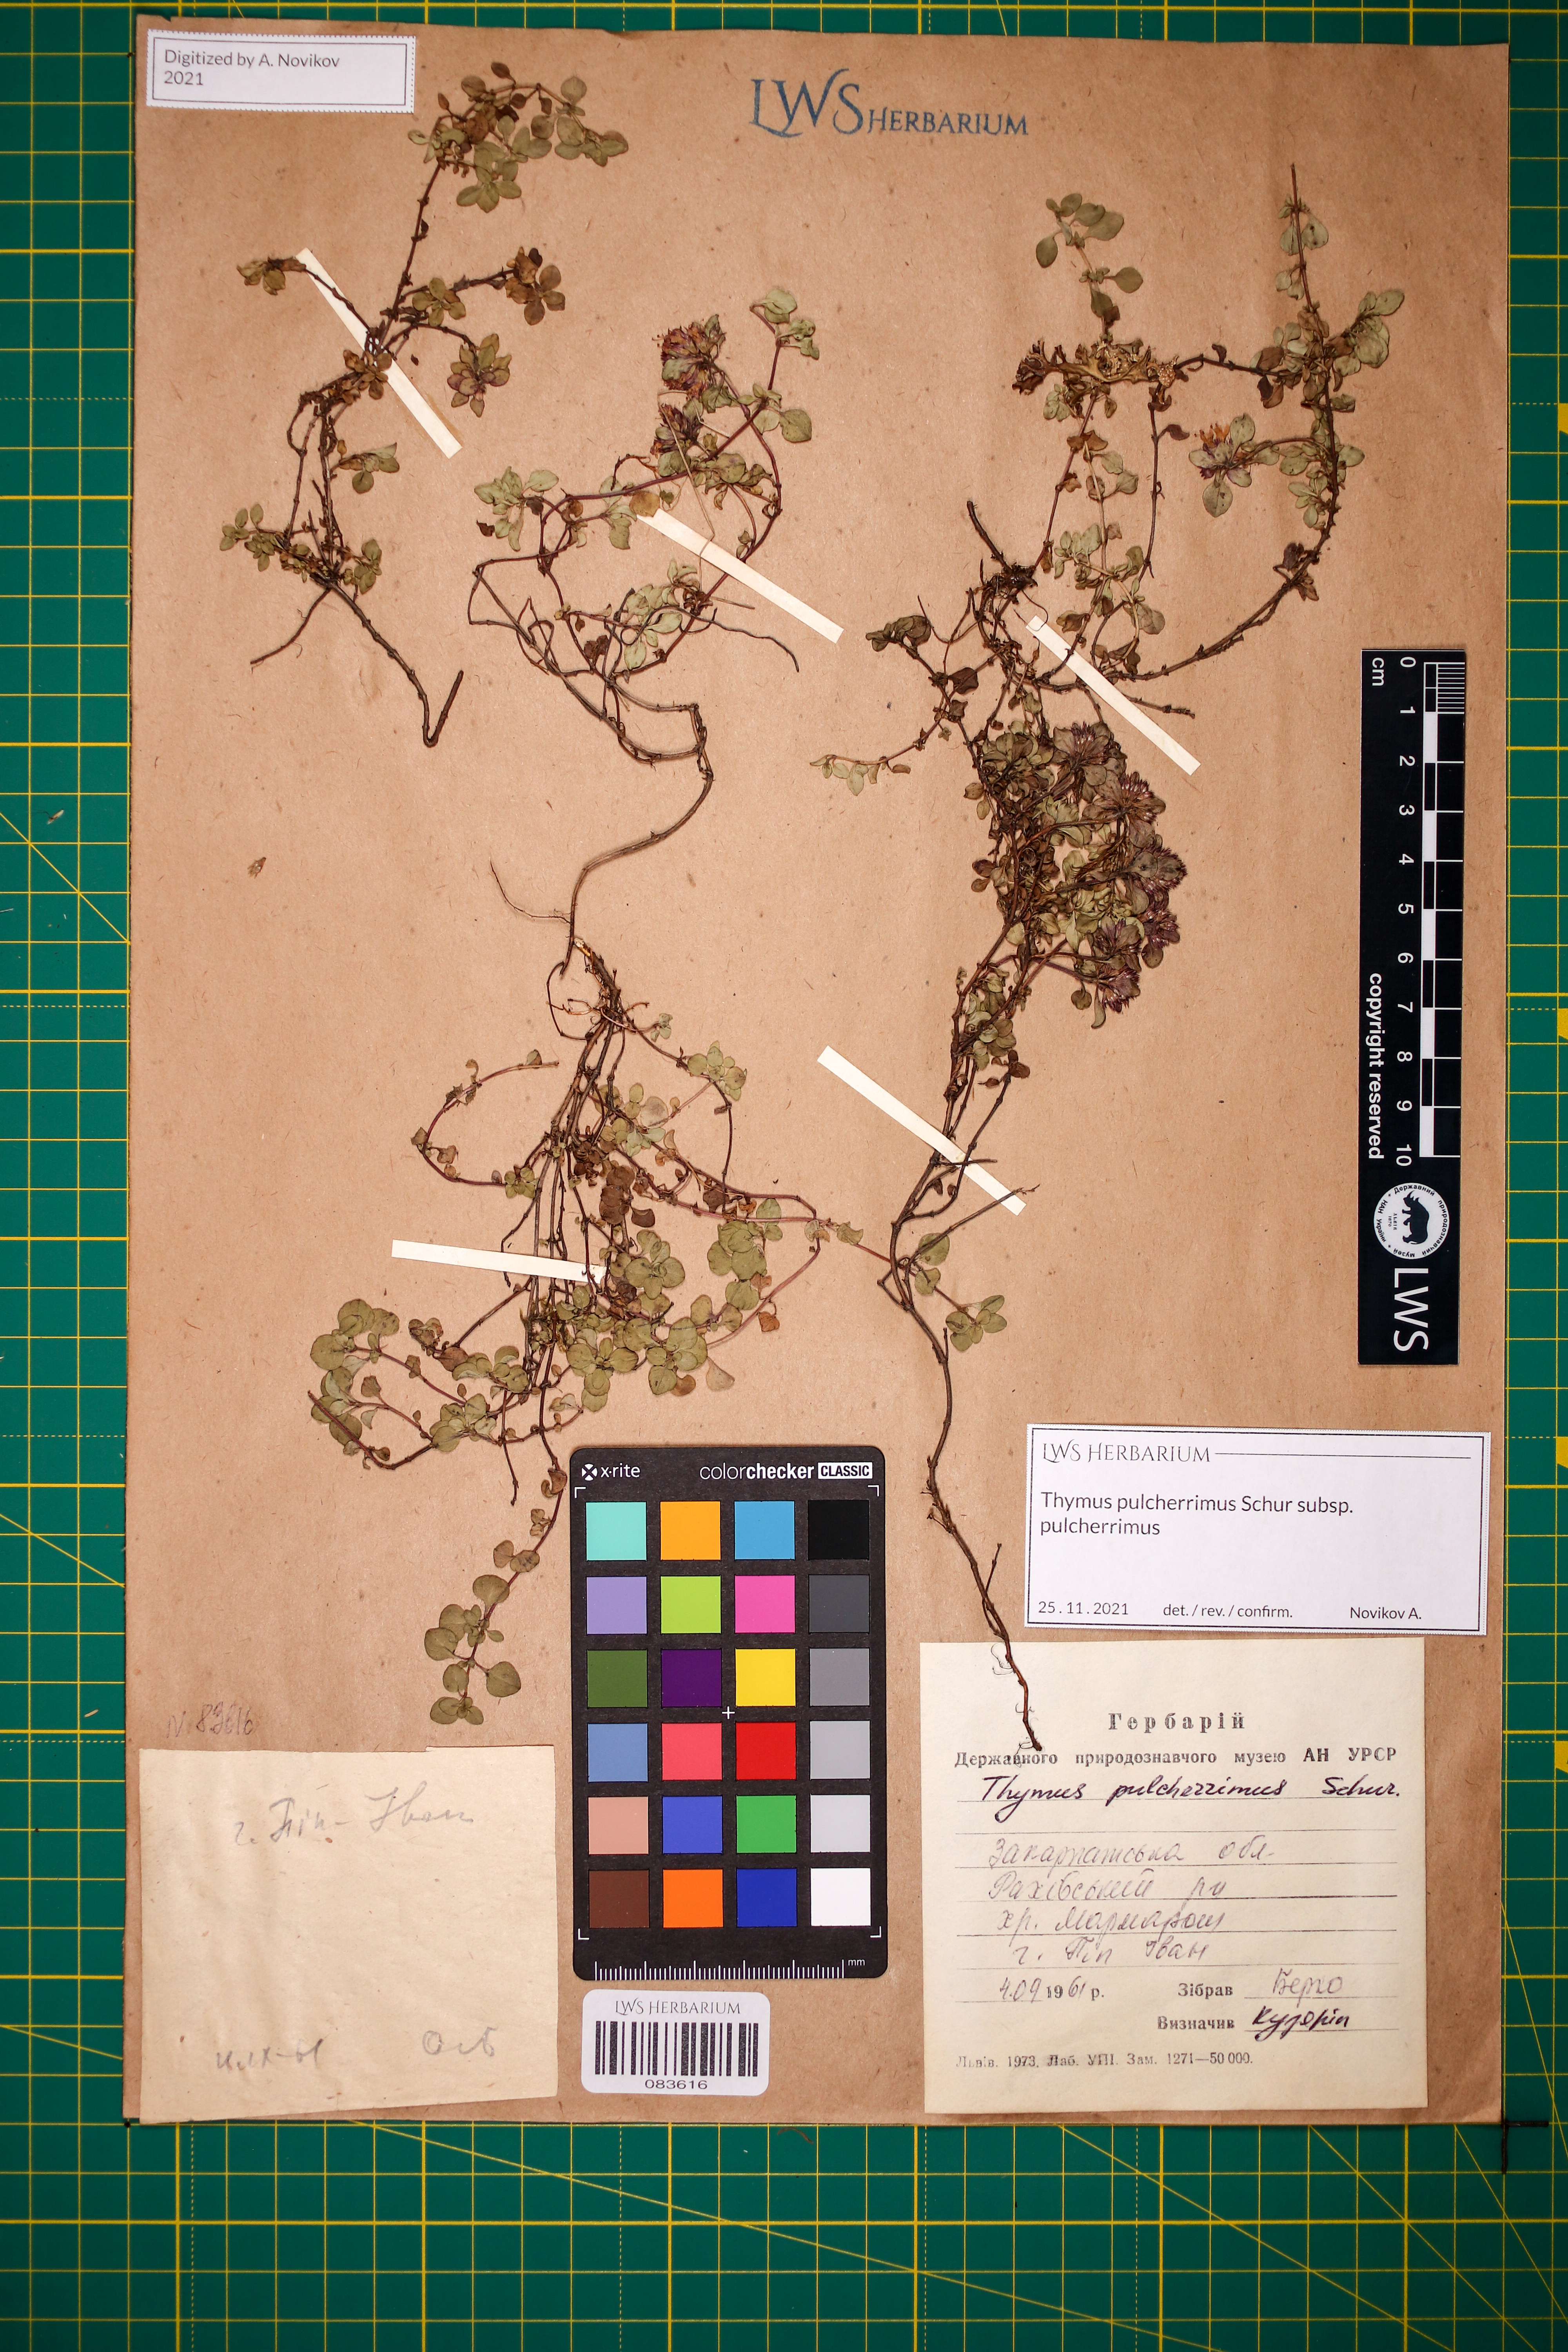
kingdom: Plantae
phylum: Tracheophyta
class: Magnoliopsida
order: Lamiales
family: Lamiaceae
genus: Thymus
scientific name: Thymus pulcherrimus
